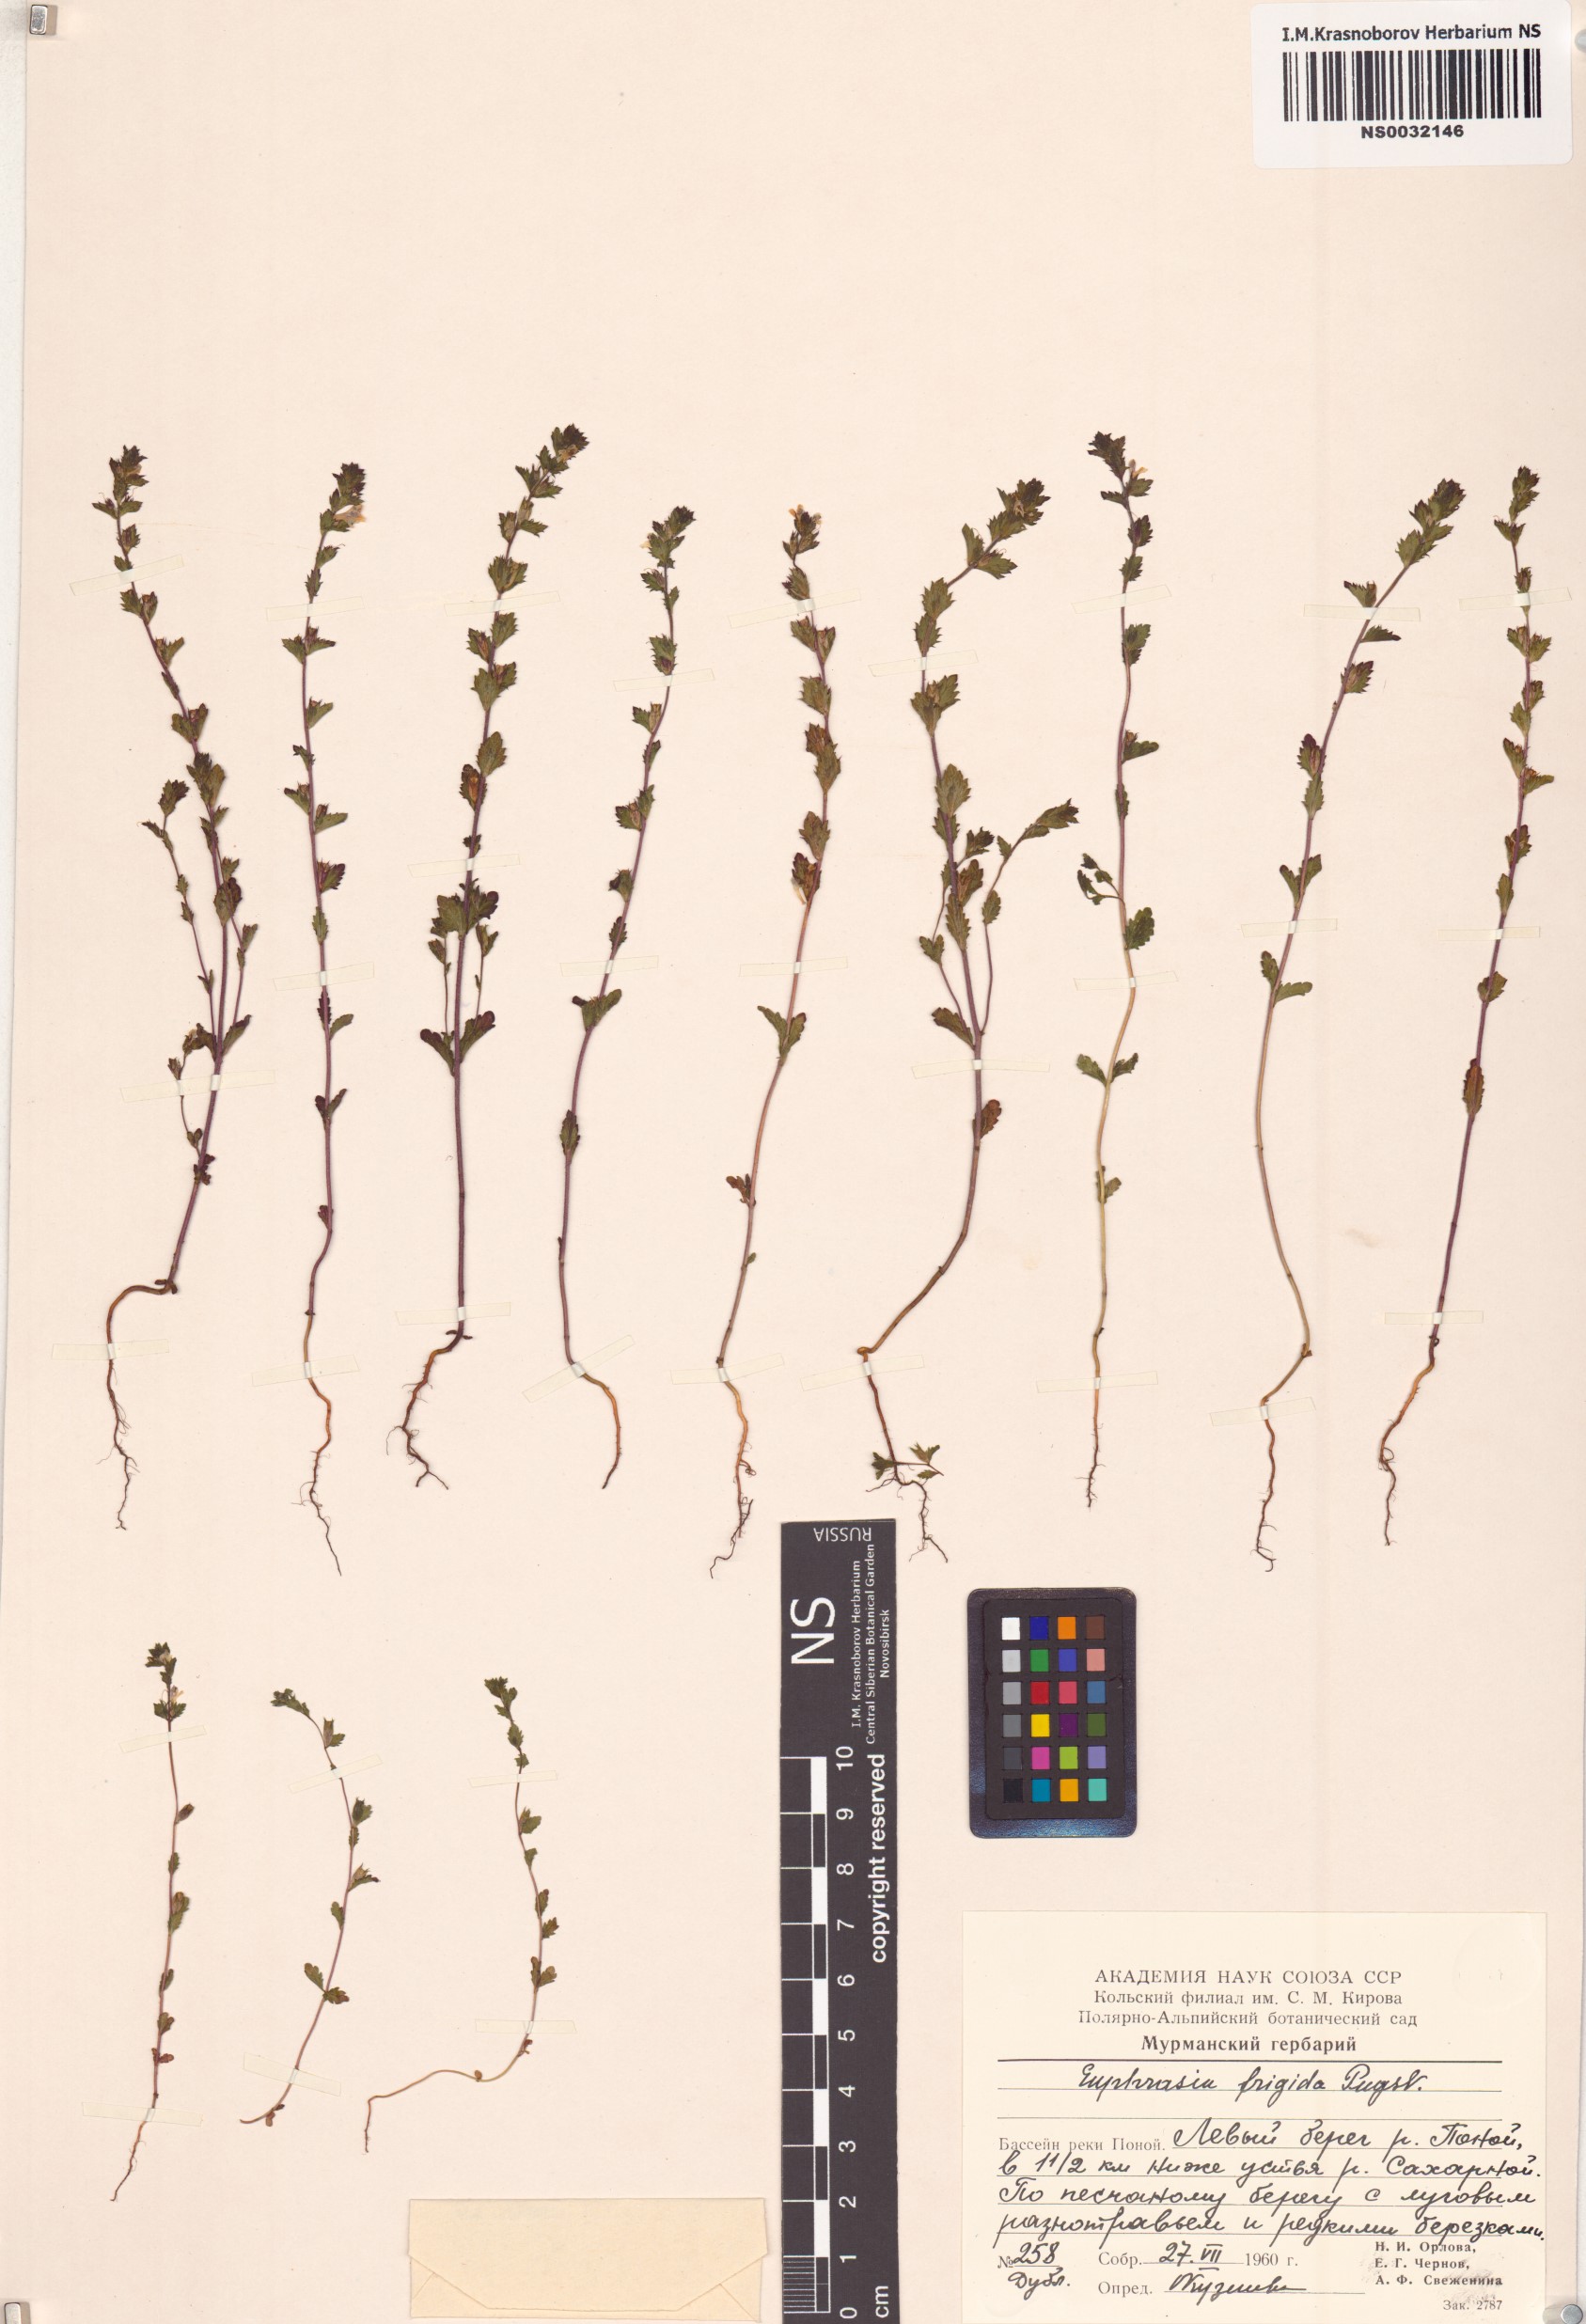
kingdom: Plantae
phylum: Tracheophyta
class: Magnoliopsida
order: Lamiales
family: Orobanchaceae
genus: Euphrasia
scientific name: Euphrasia frigida
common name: An eyebright
